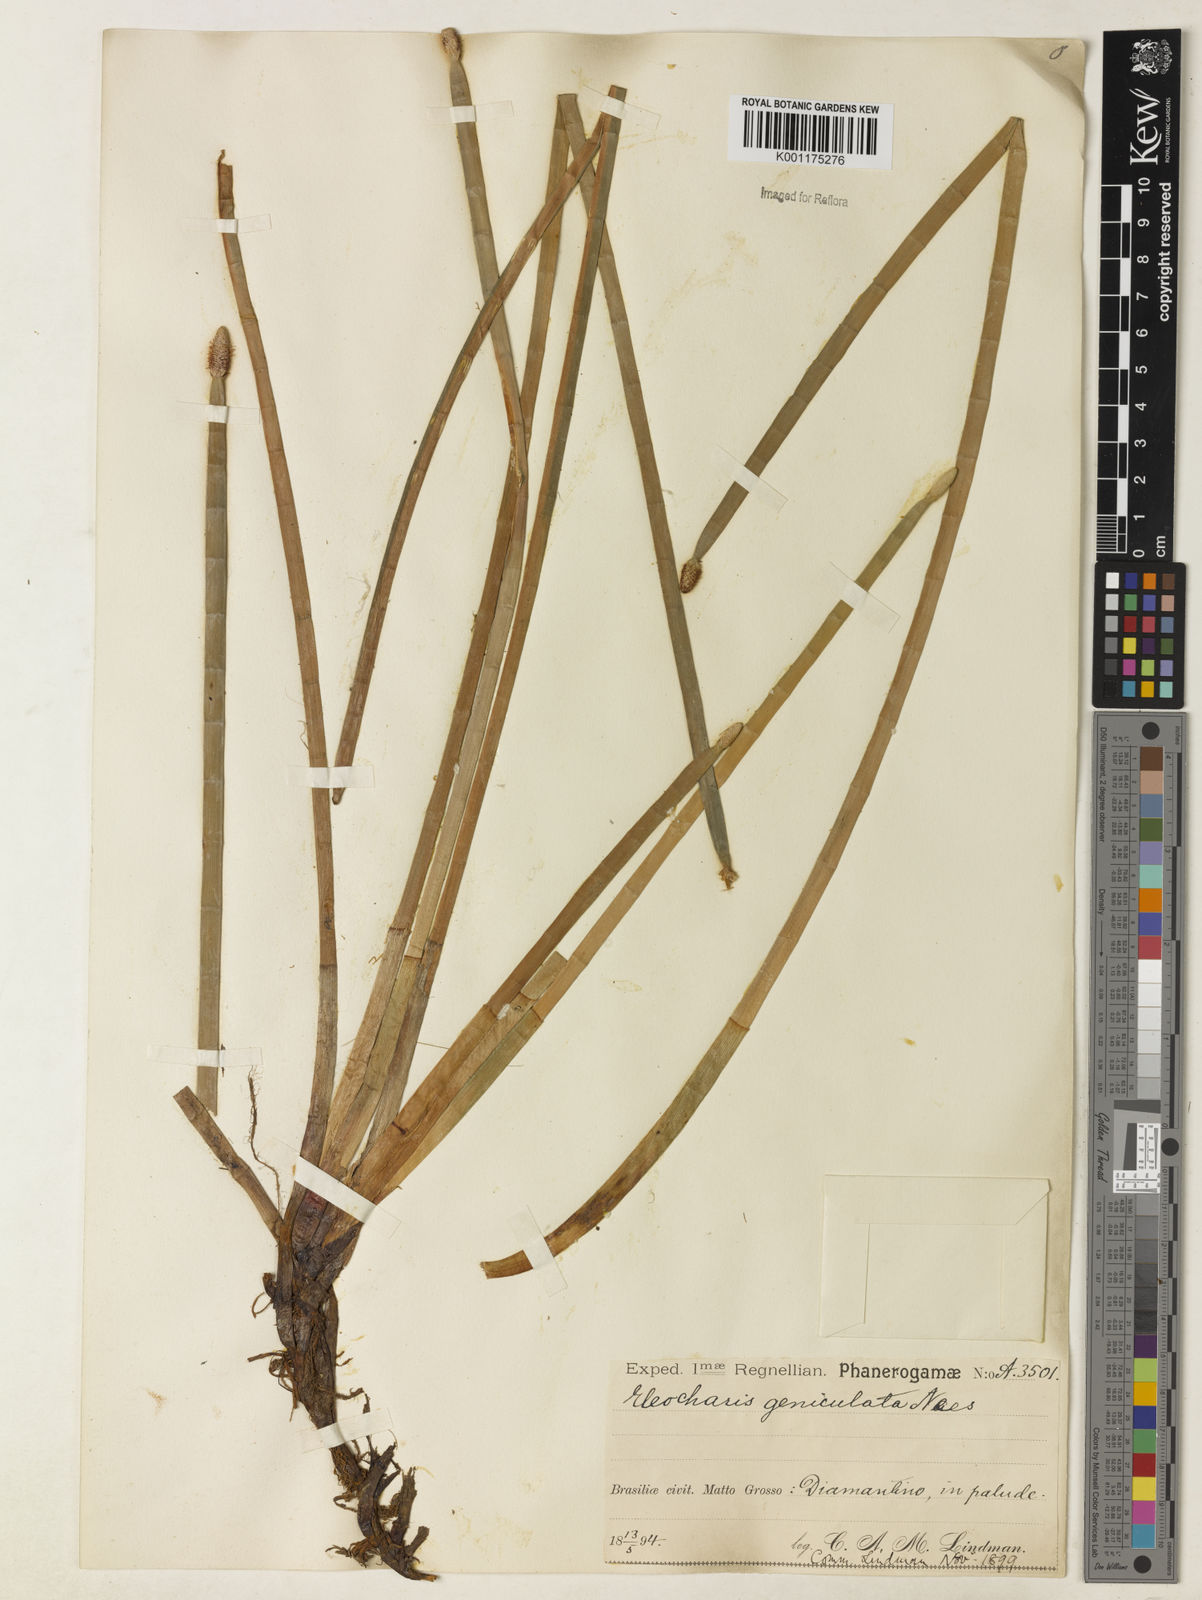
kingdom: Plantae
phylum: Tracheophyta
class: Liliopsida
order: Poales
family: Cyperaceae
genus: Eleocharis
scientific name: Eleocharis geniculata
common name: Canada spikesedge
